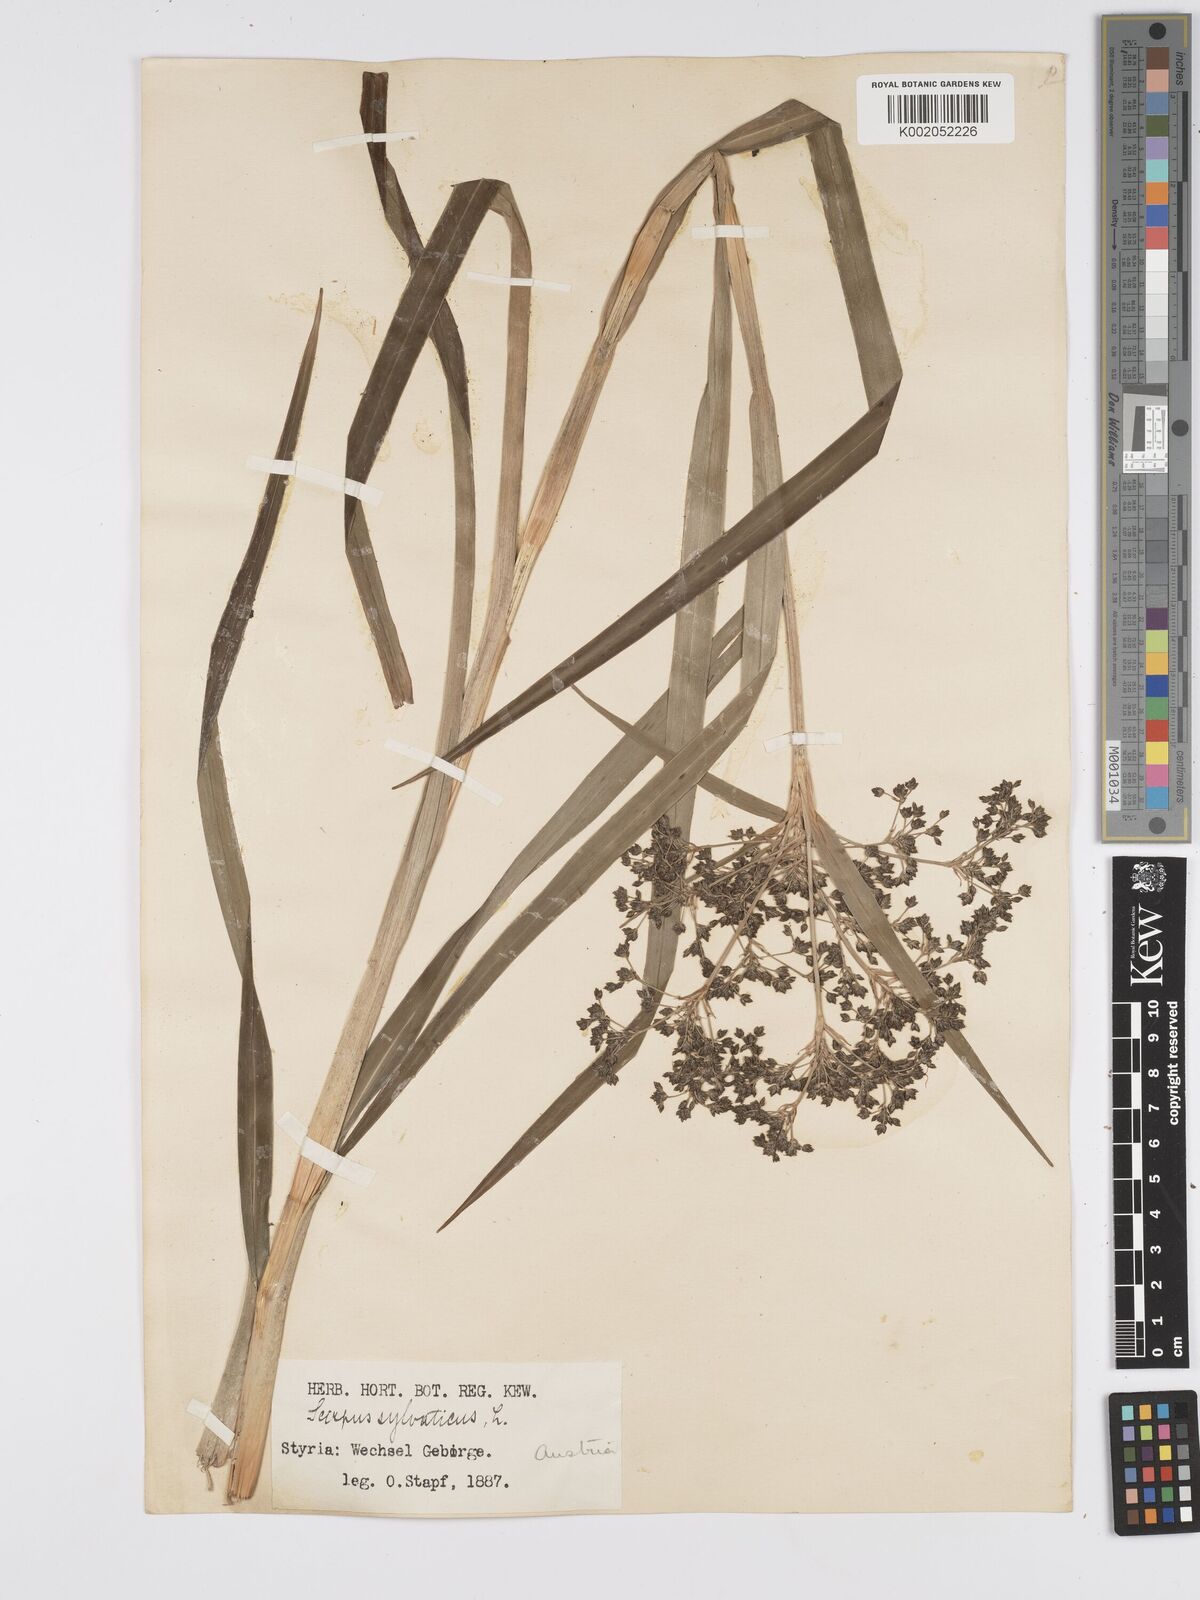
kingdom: Plantae
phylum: Tracheophyta
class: Liliopsida
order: Poales
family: Cyperaceae
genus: Scirpus
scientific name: Scirpus sylvaticus
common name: Wood club-rush
